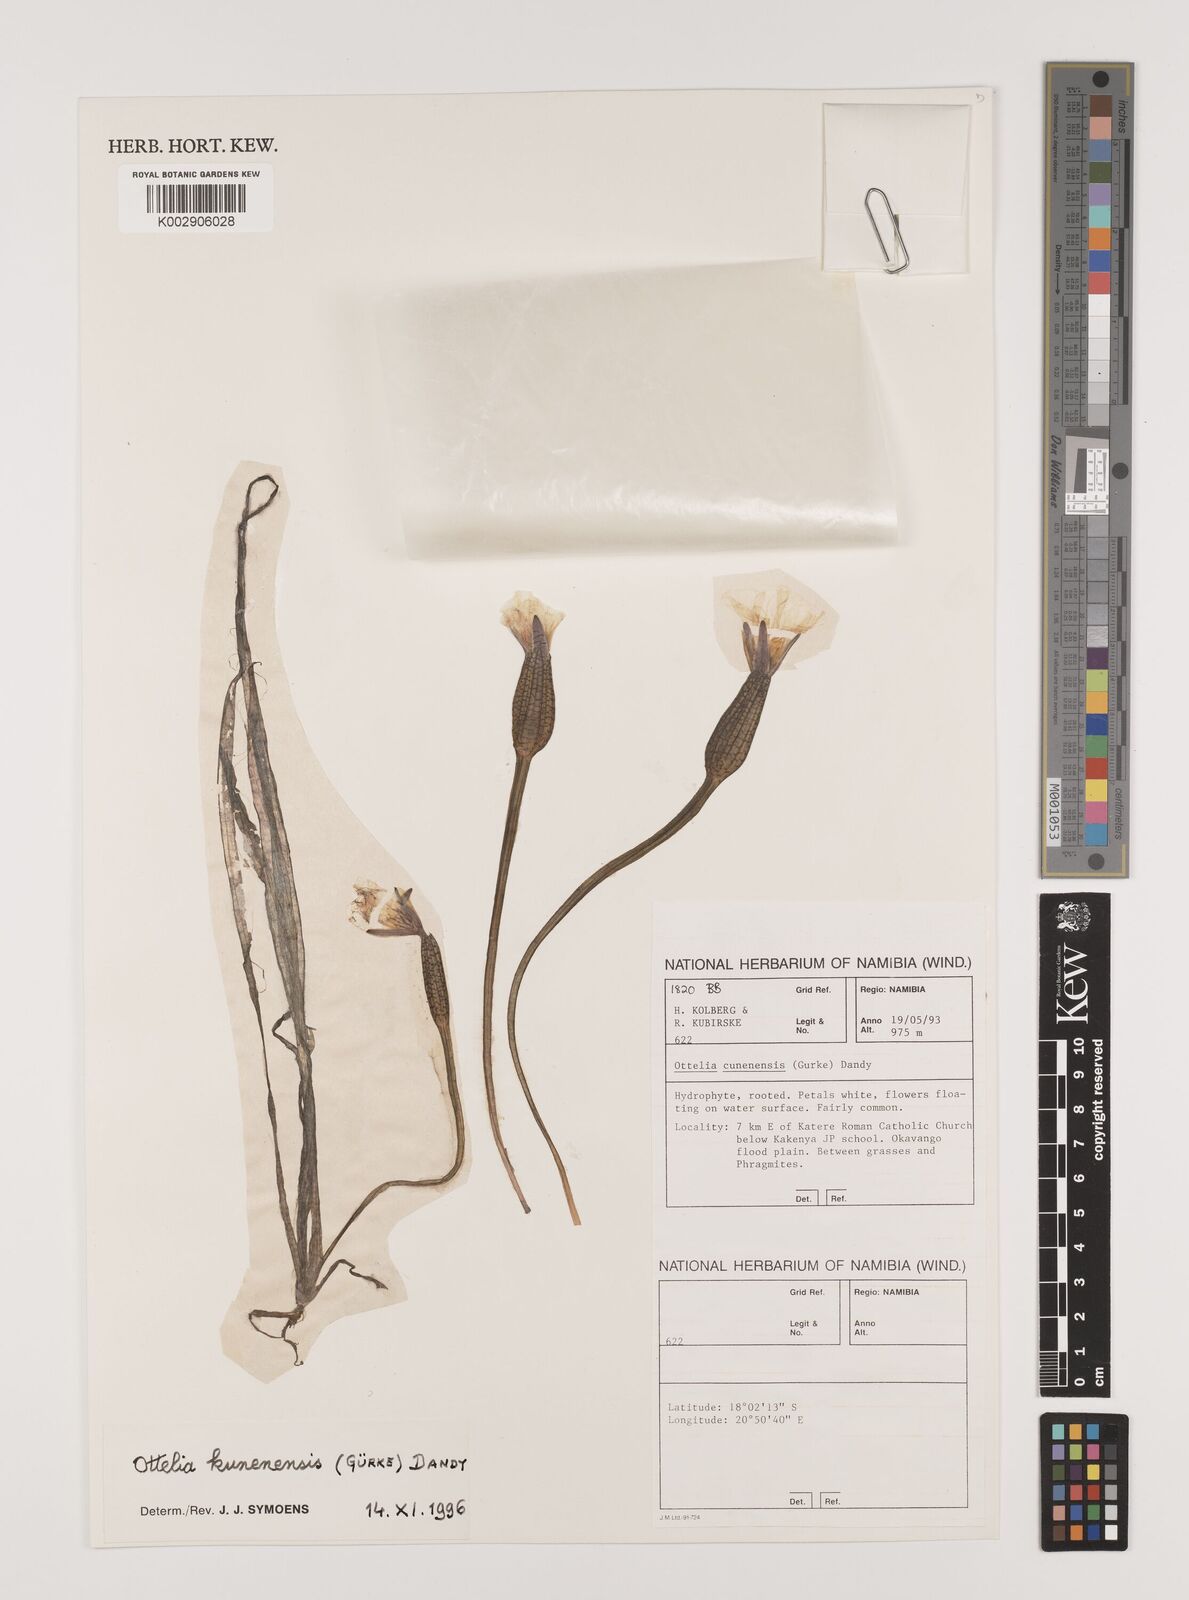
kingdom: Plantae
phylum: Tracheophyta
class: Liliopsida
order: Alismatales
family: Hydrocharitaceae
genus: Ottelia
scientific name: Ottelia kunenensis
